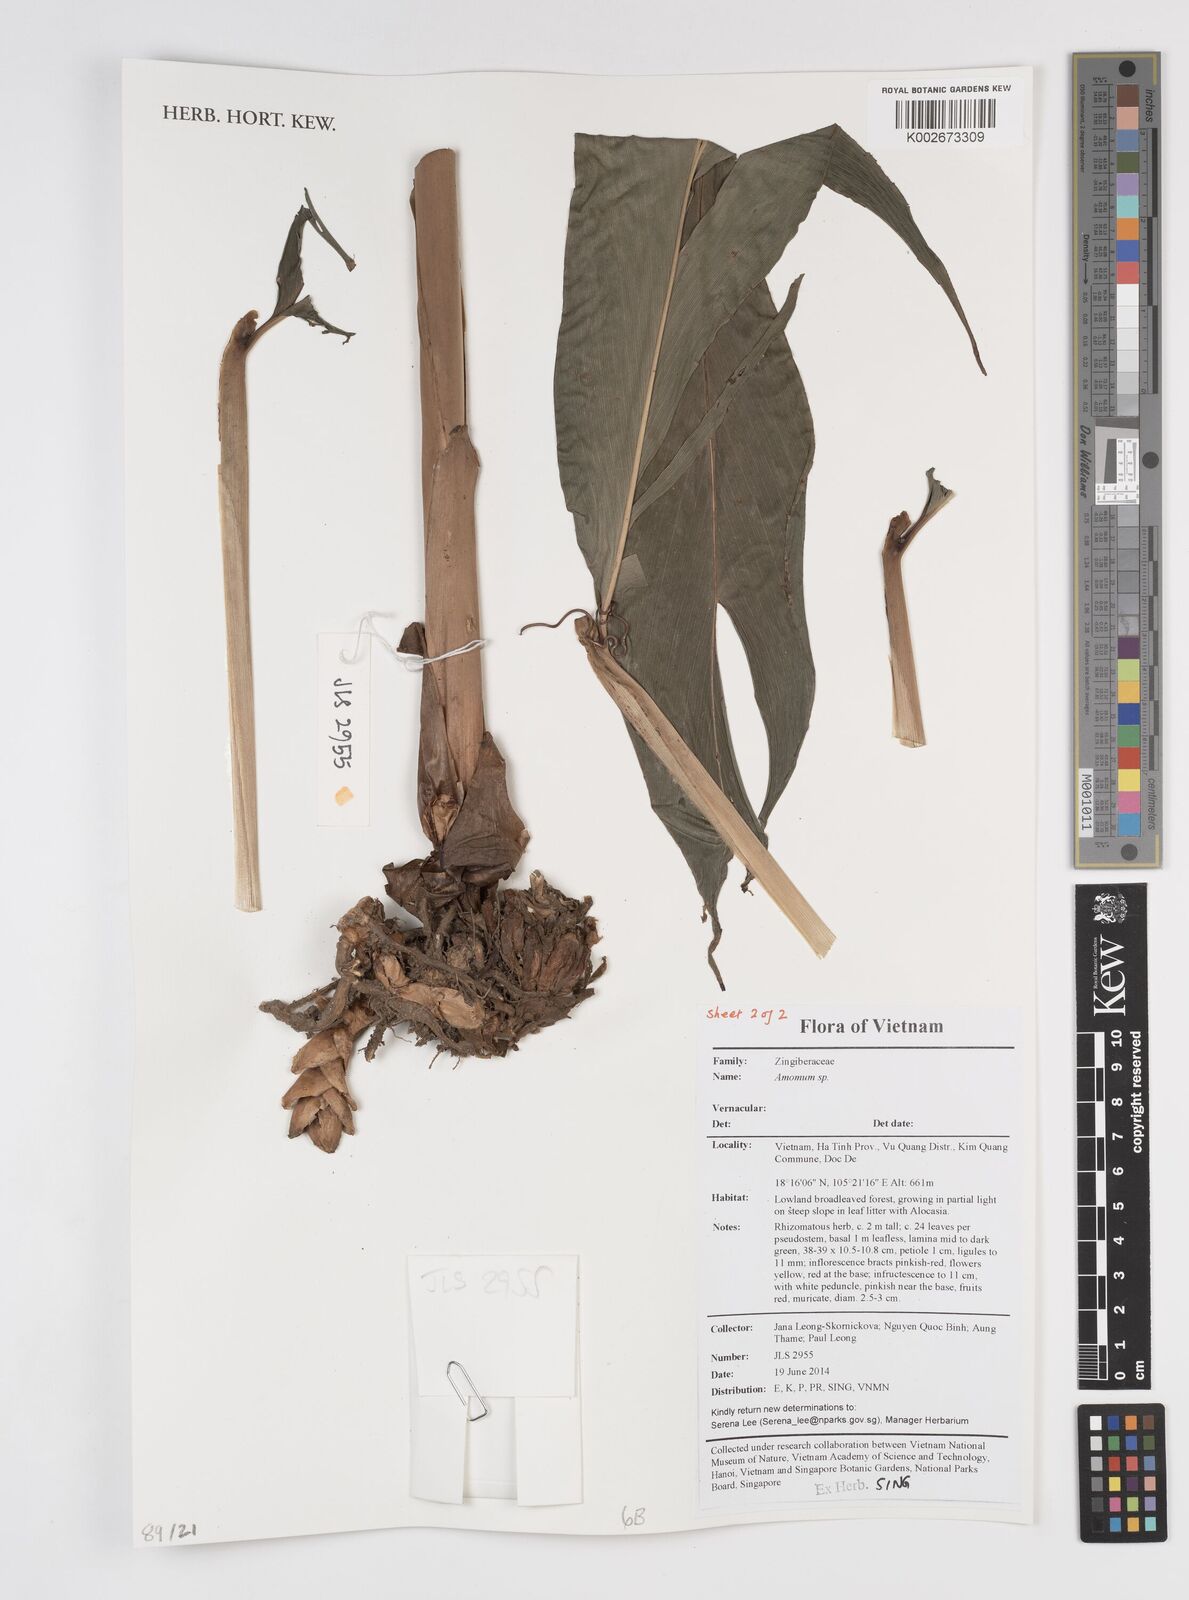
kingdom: Plantae
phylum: Tracheophyta
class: Liliopsida
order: Zingiberales
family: Zingiberaceae
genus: Amomum
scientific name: Amomum
